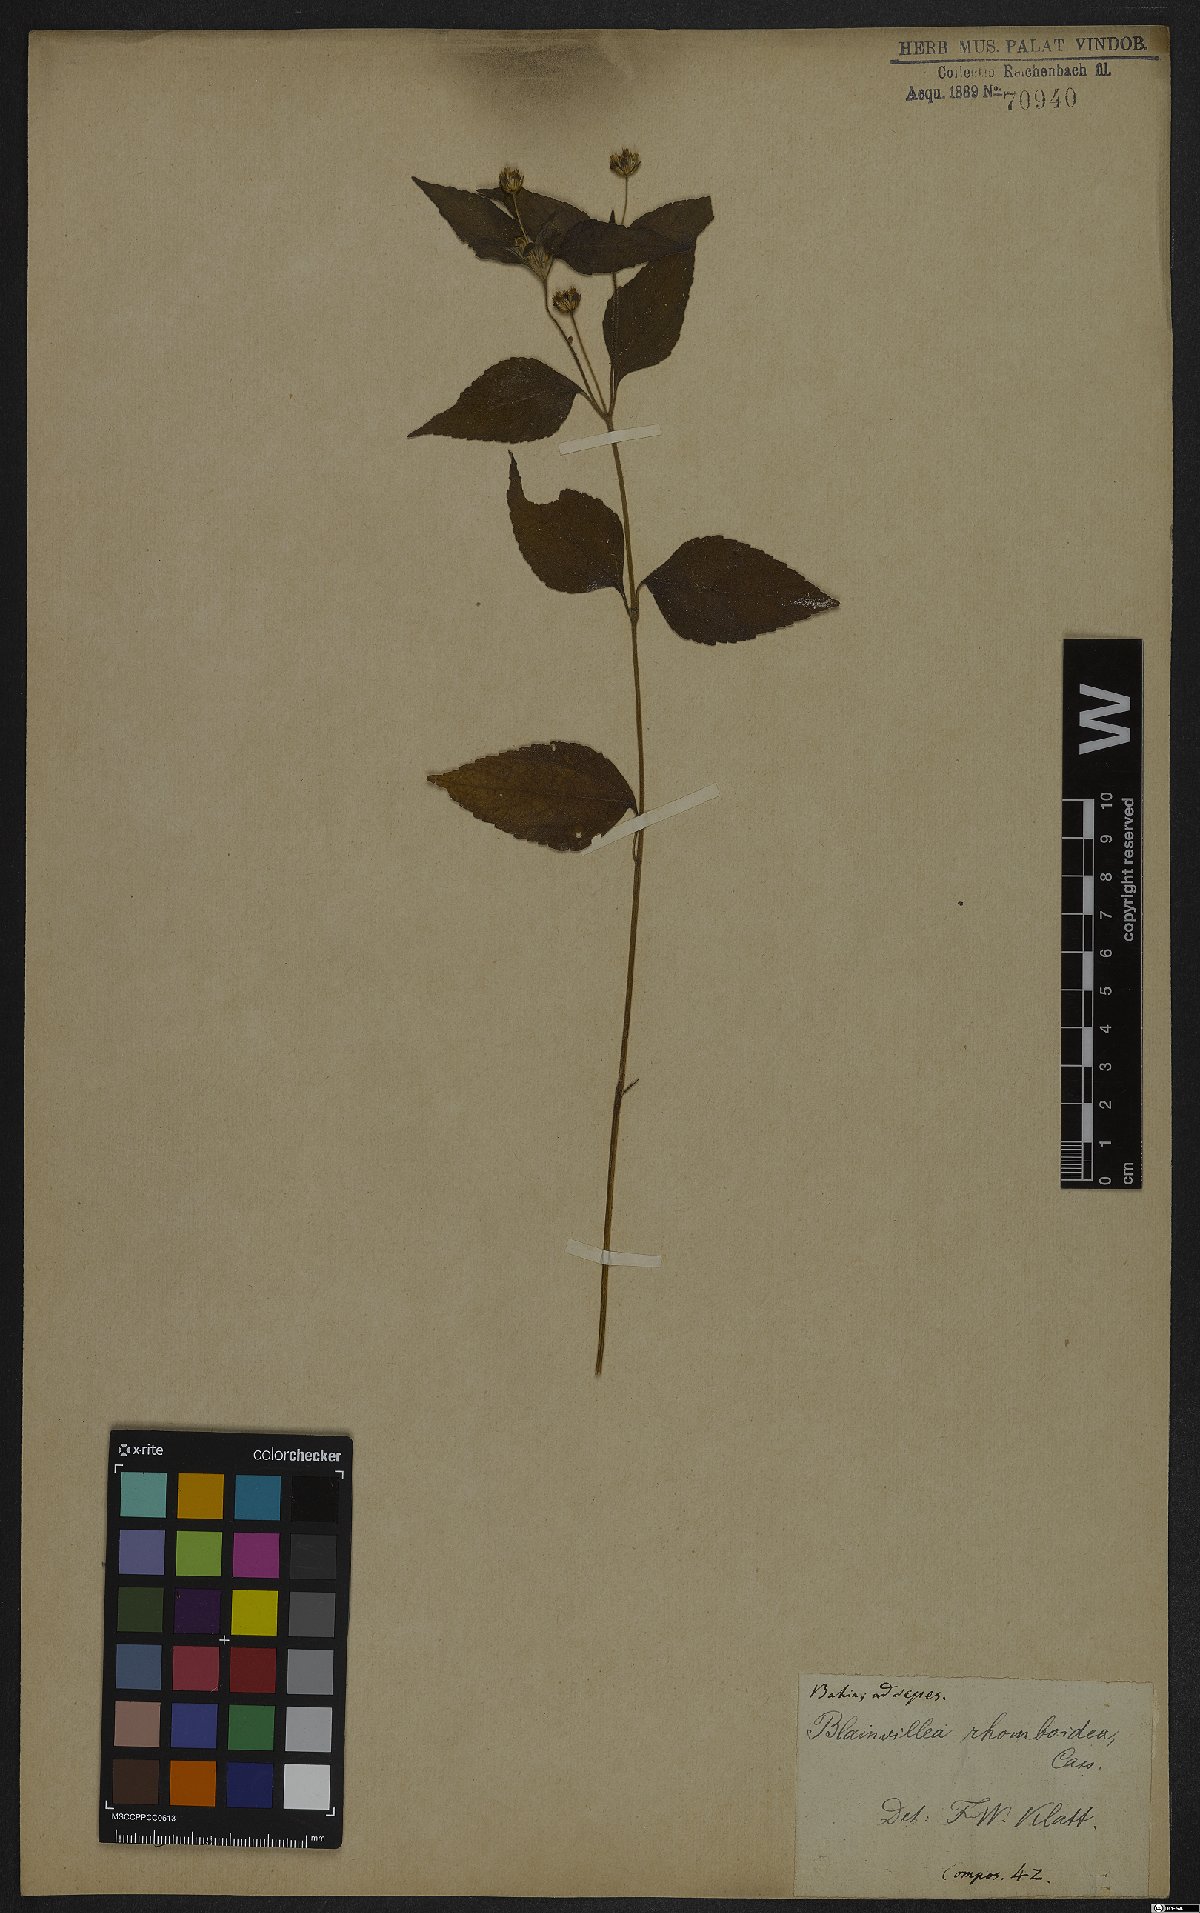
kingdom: Plantae
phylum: Tracheophyta
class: Magnoliopsida
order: Asterales
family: Asteraceae
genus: Blainvillea
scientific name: Blainvillea dichotoma
